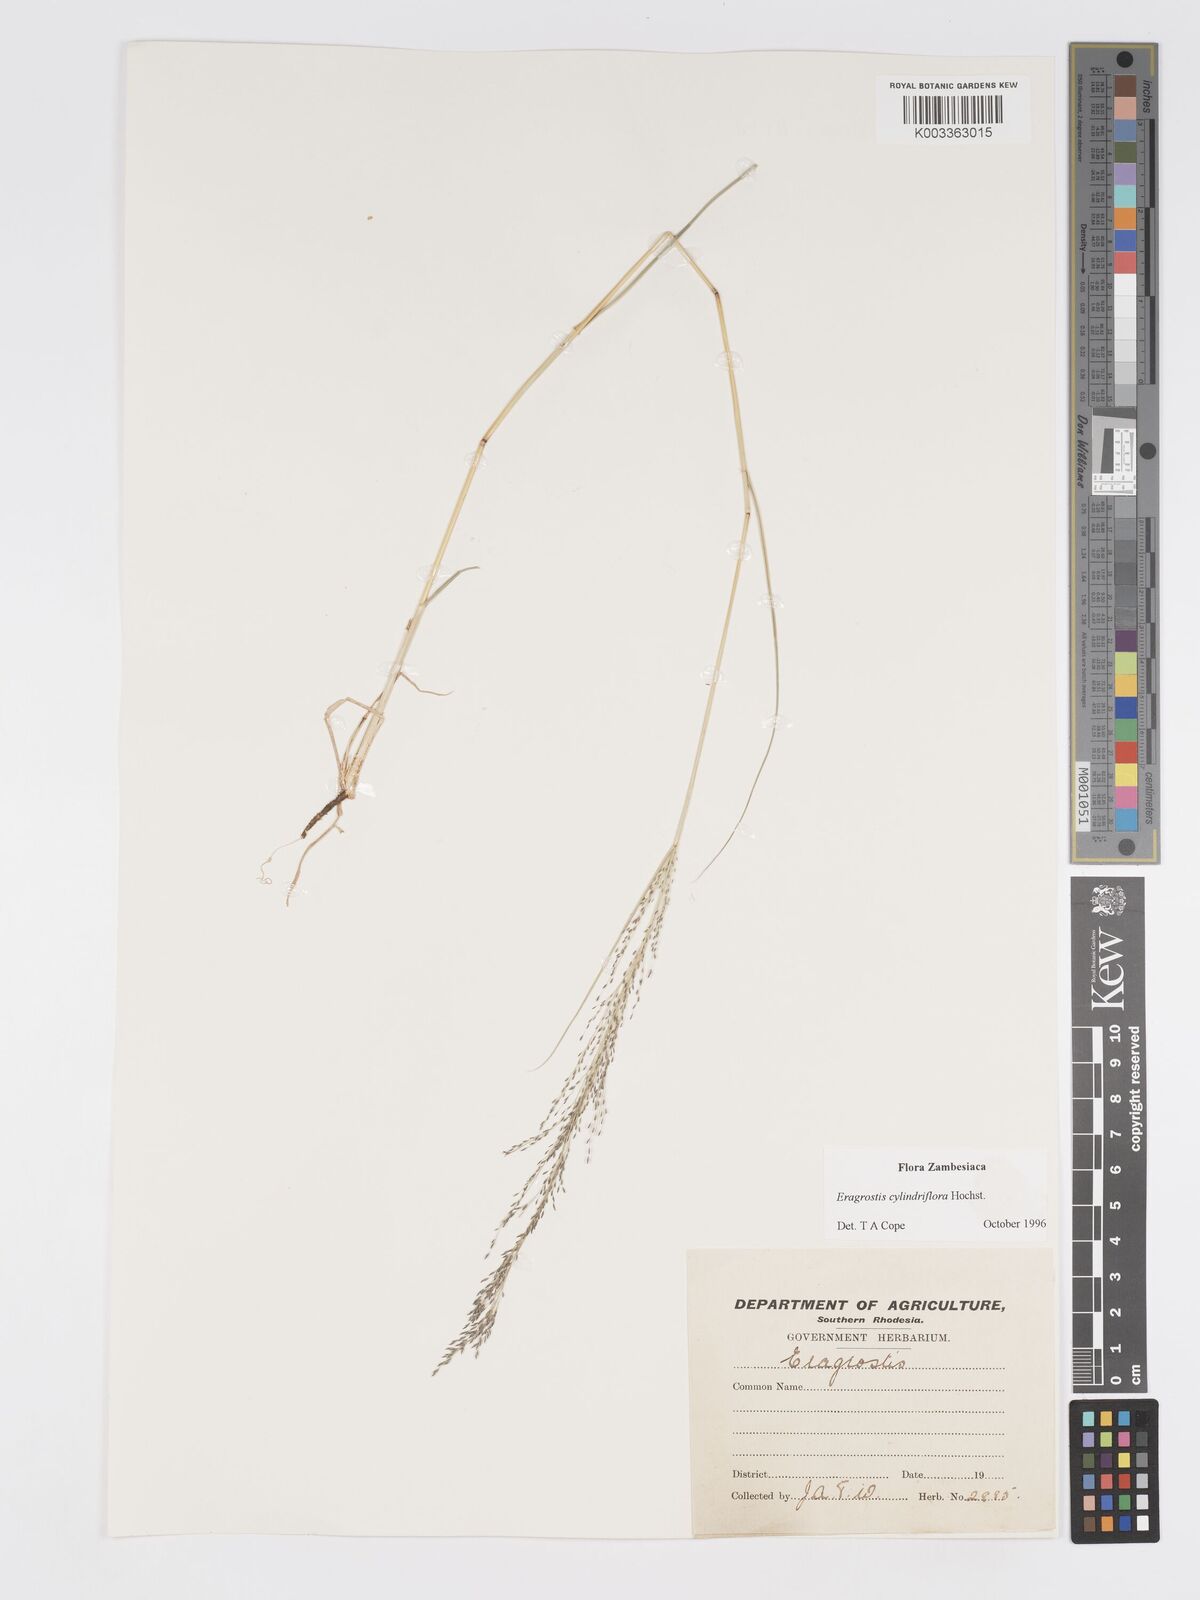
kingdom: Plantae
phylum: Tracheophyta
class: Liliopsida
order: Poales
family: Poaceae
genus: Eragrostis
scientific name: Eragrostis cylindriflora
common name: Cylinderflower lovegrass
